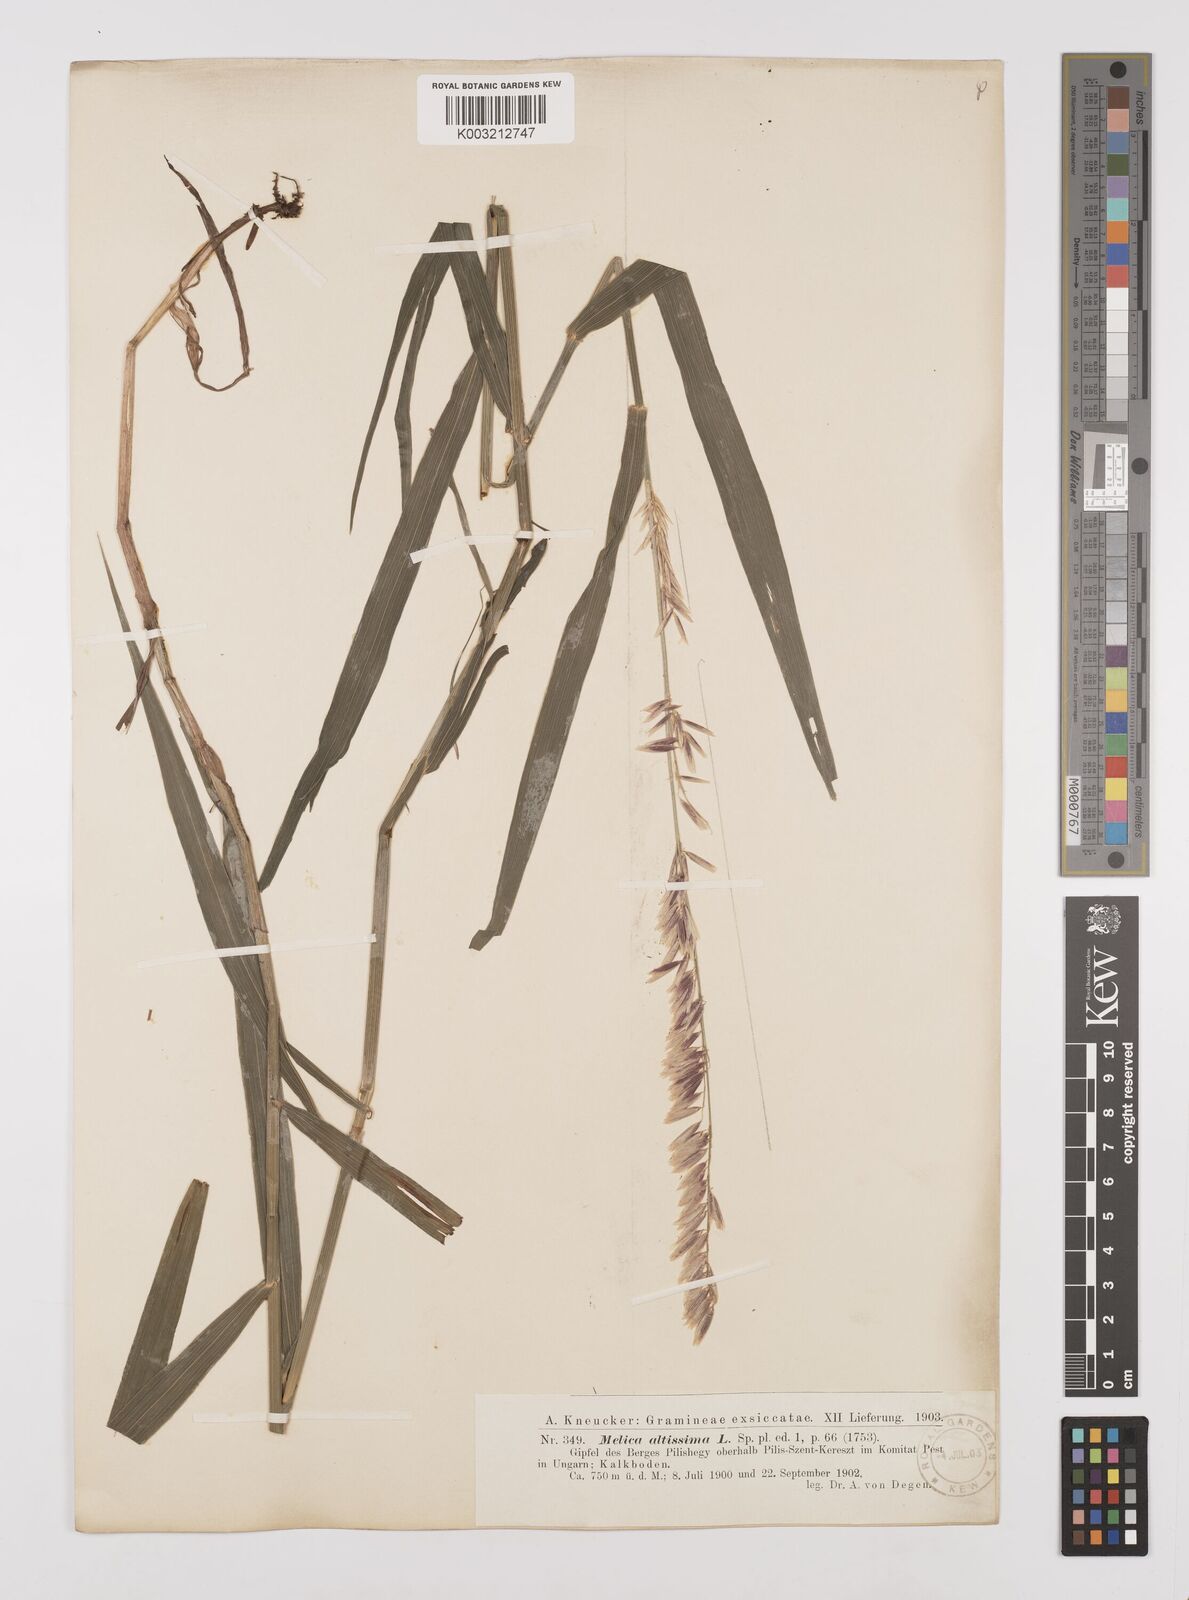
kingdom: Plantae
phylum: Tracheophyta
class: Liliopsida
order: Poales
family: Poaceae
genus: Melica
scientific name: Melica altissima
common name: Siberian melicgrass
